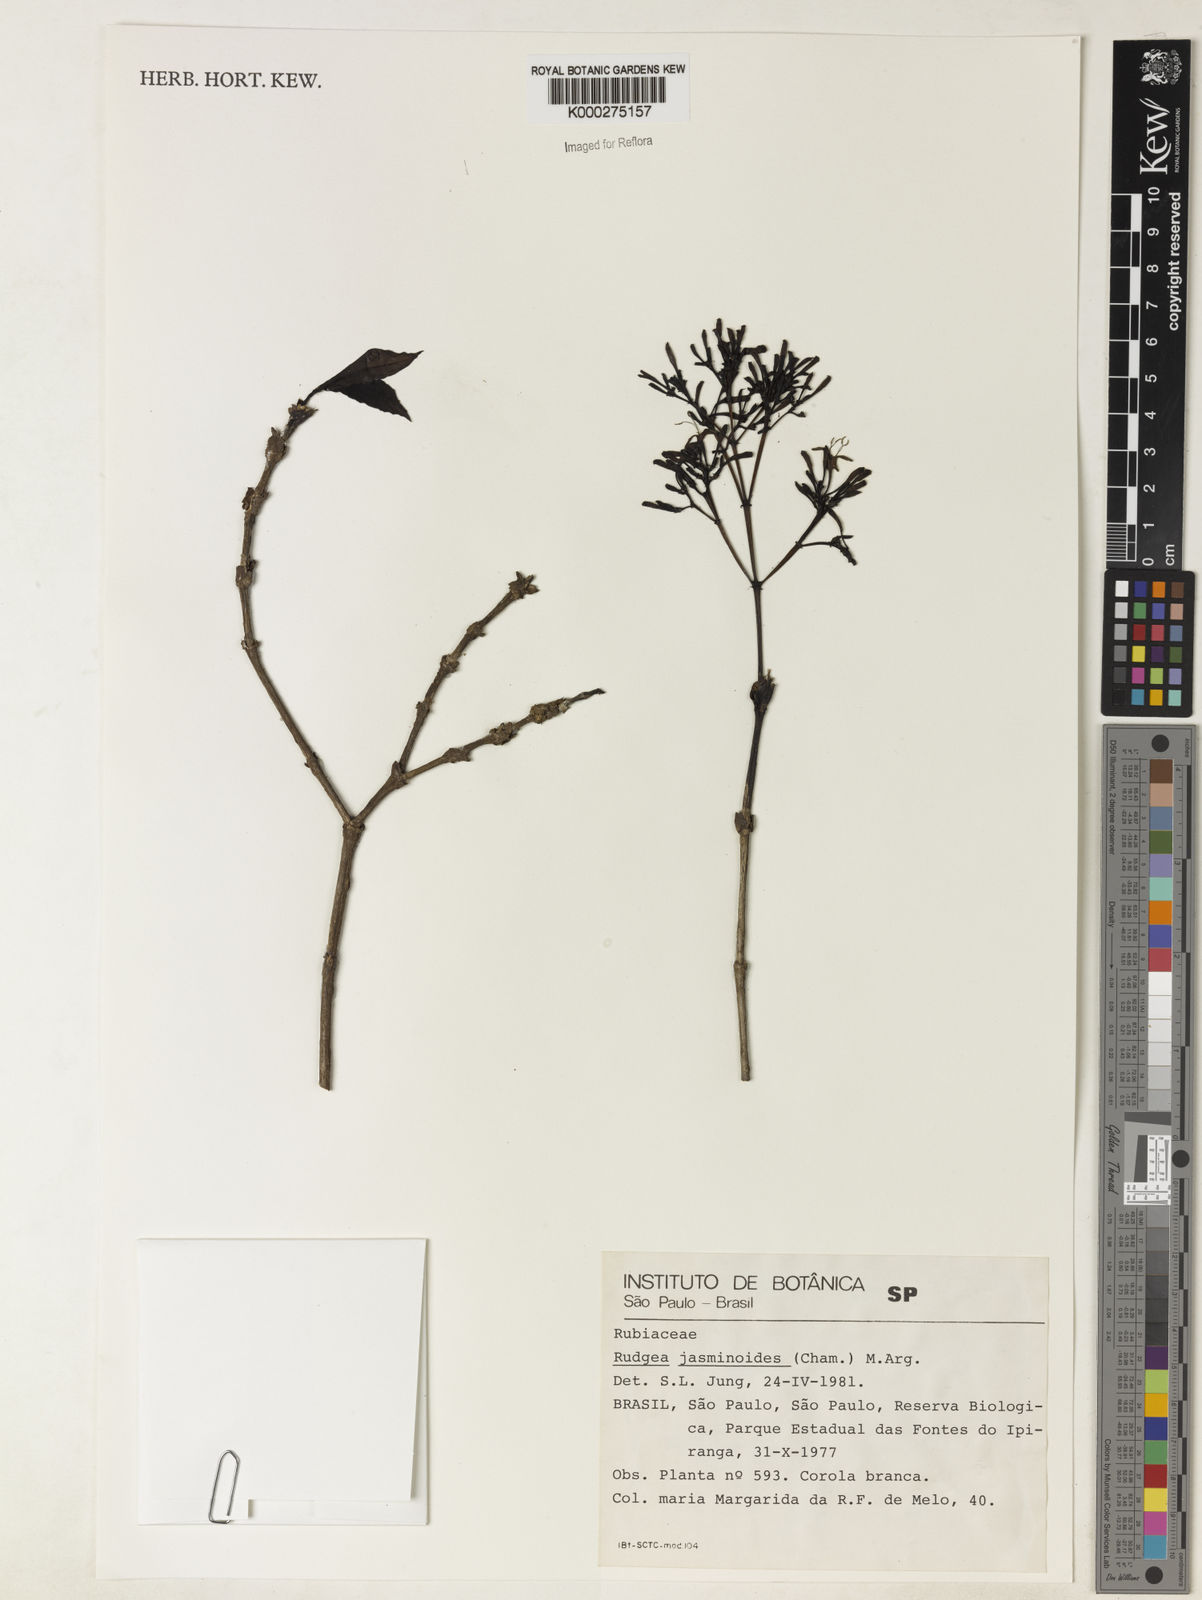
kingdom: Plantae
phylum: Tracheophyta
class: Magnoliopsida
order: Gentianales
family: Rubiaceae
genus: Rudgea
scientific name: Rudgea jasminoides
